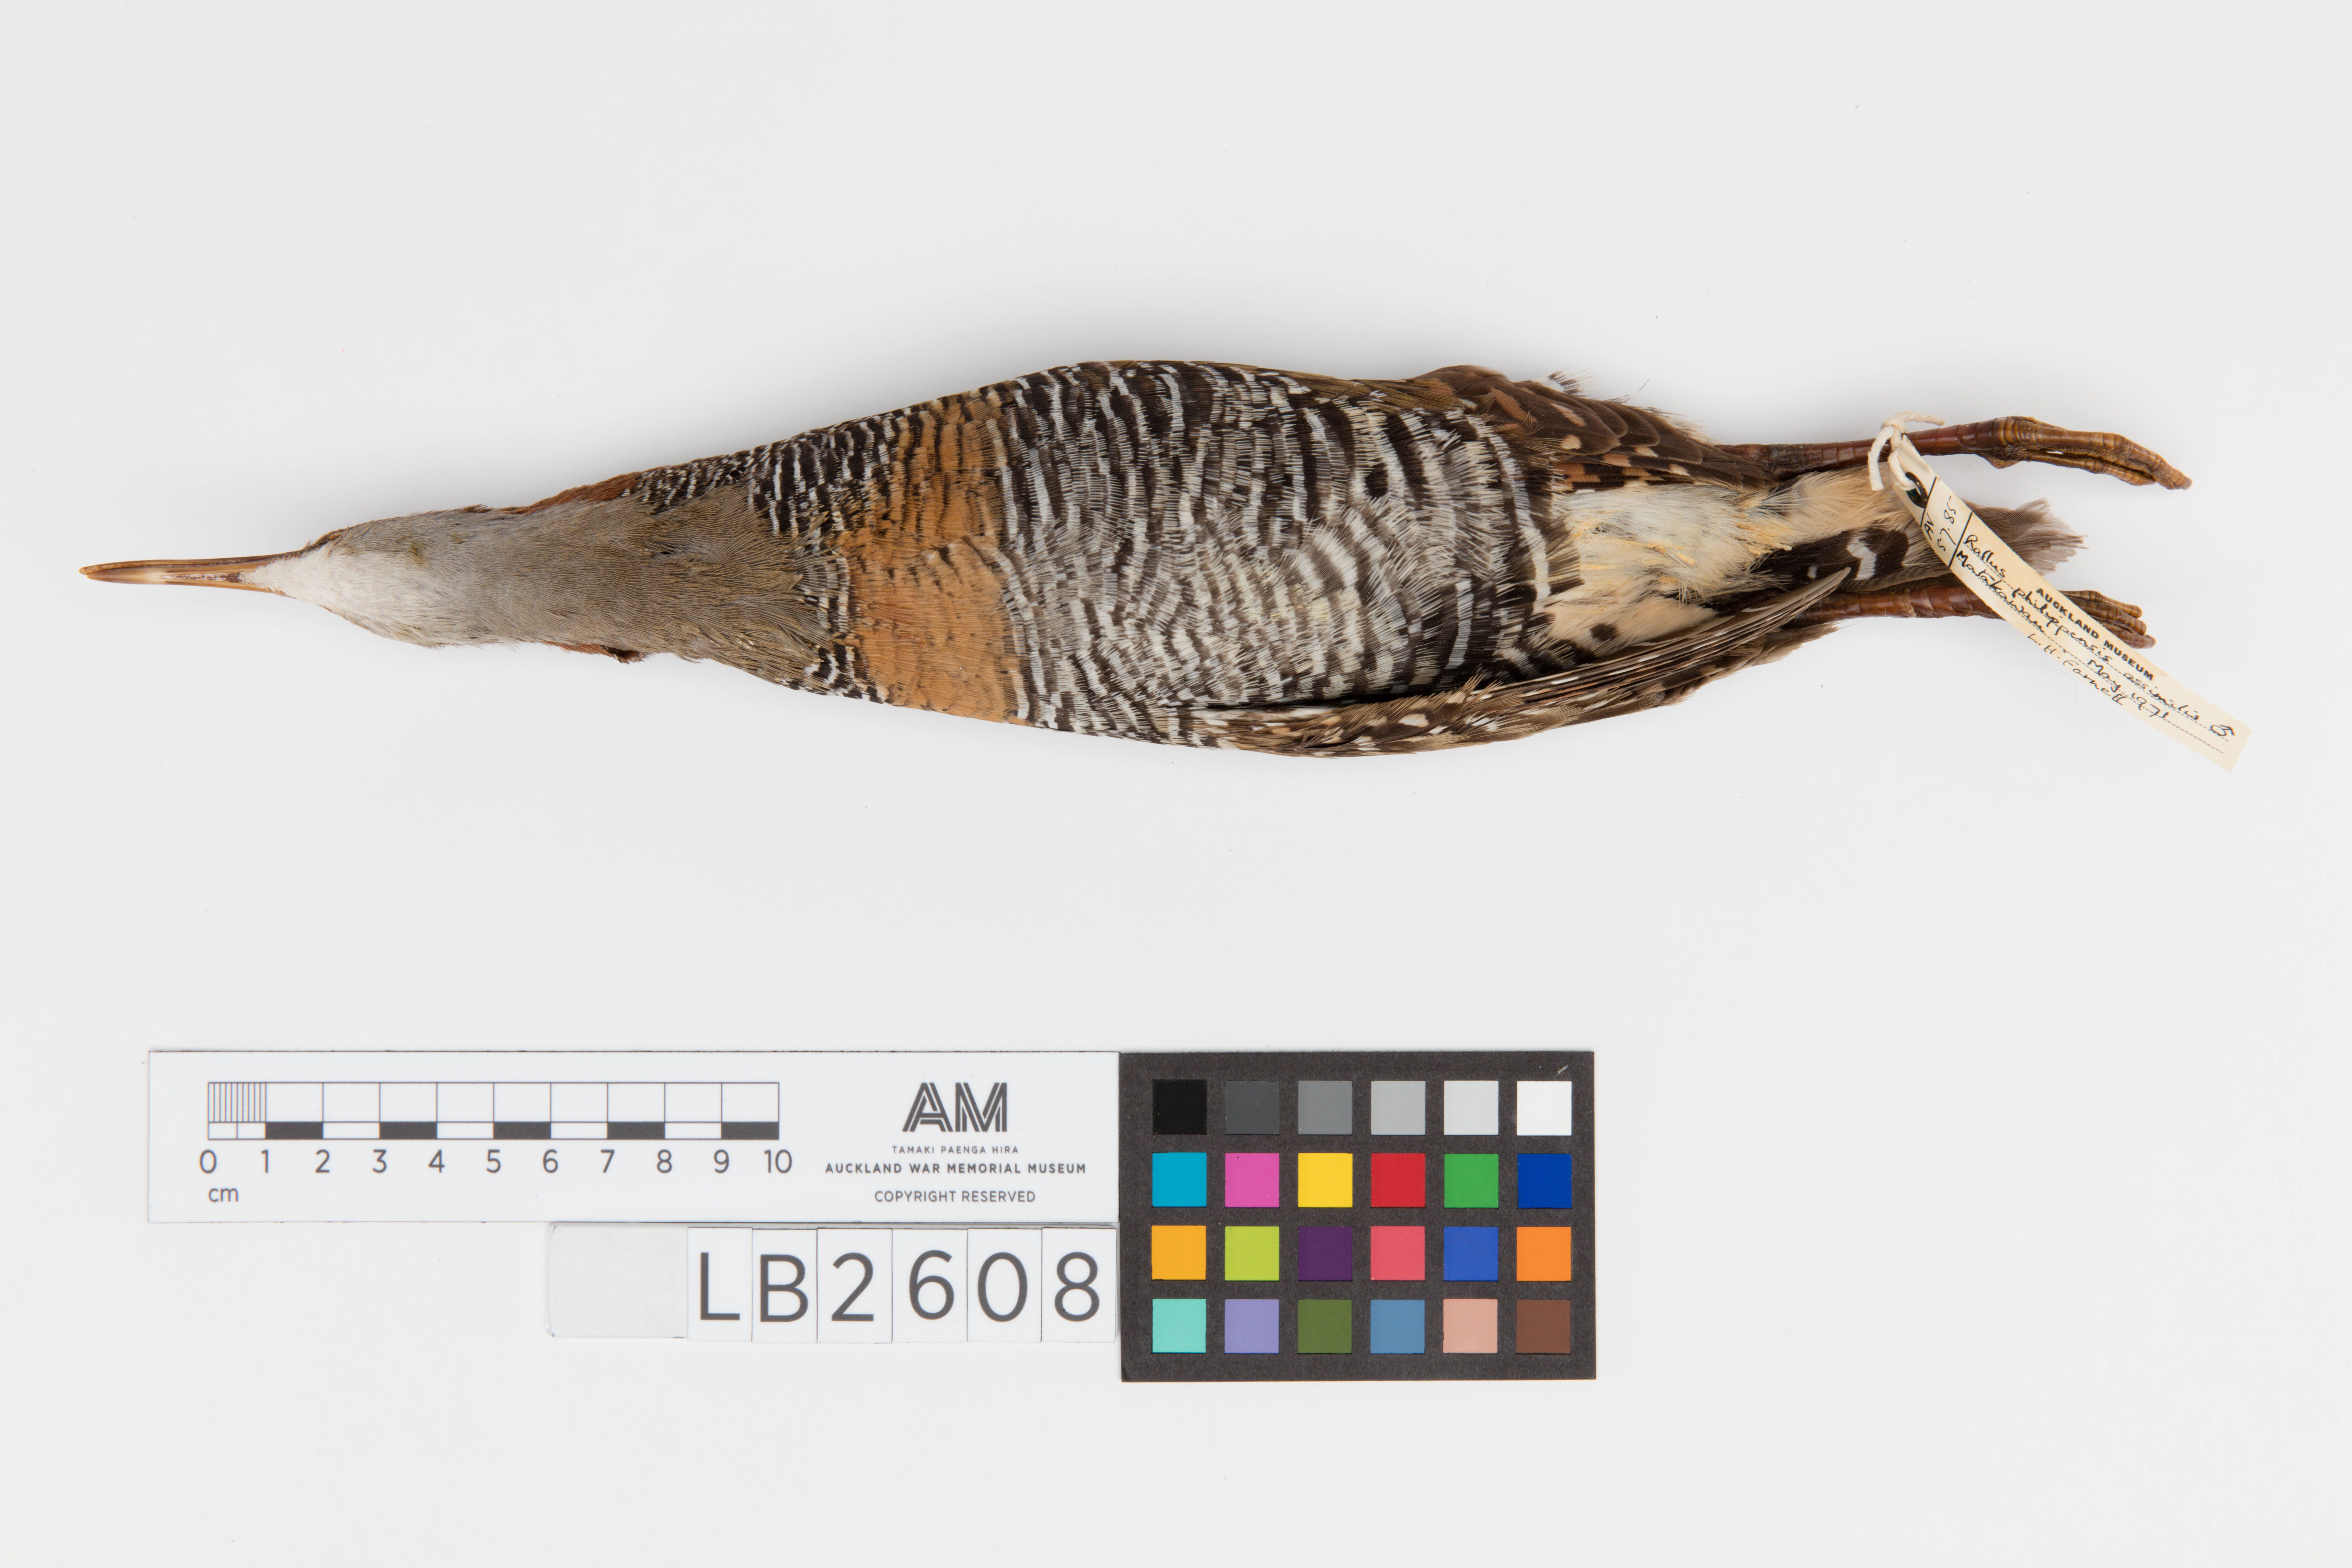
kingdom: Animalia
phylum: Chordata
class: Aves
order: Gruiformes
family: Rallidae
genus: Gallirallus
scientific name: Gallirallus philippensis
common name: Buff-banded rail
